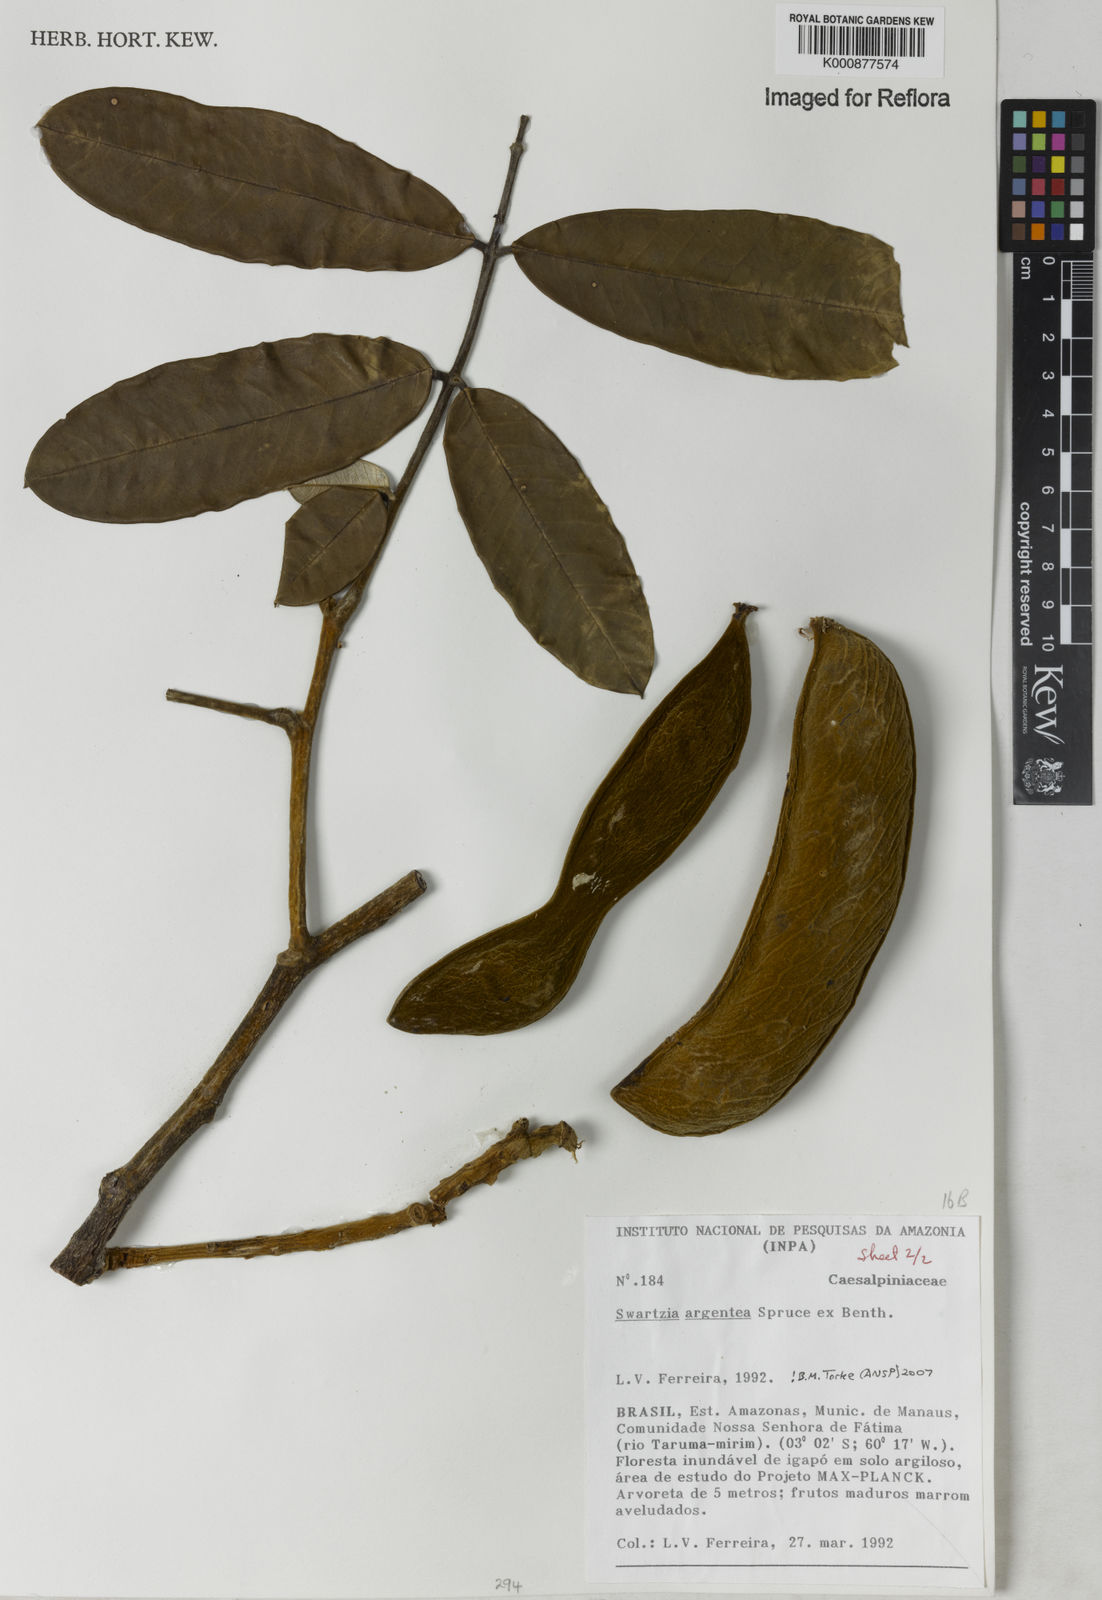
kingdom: Plantae
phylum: Tracheophyta
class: Magnoliopsida
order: Fabales
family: Fabaceae
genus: Swartzia
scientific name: Swartzia argentea
